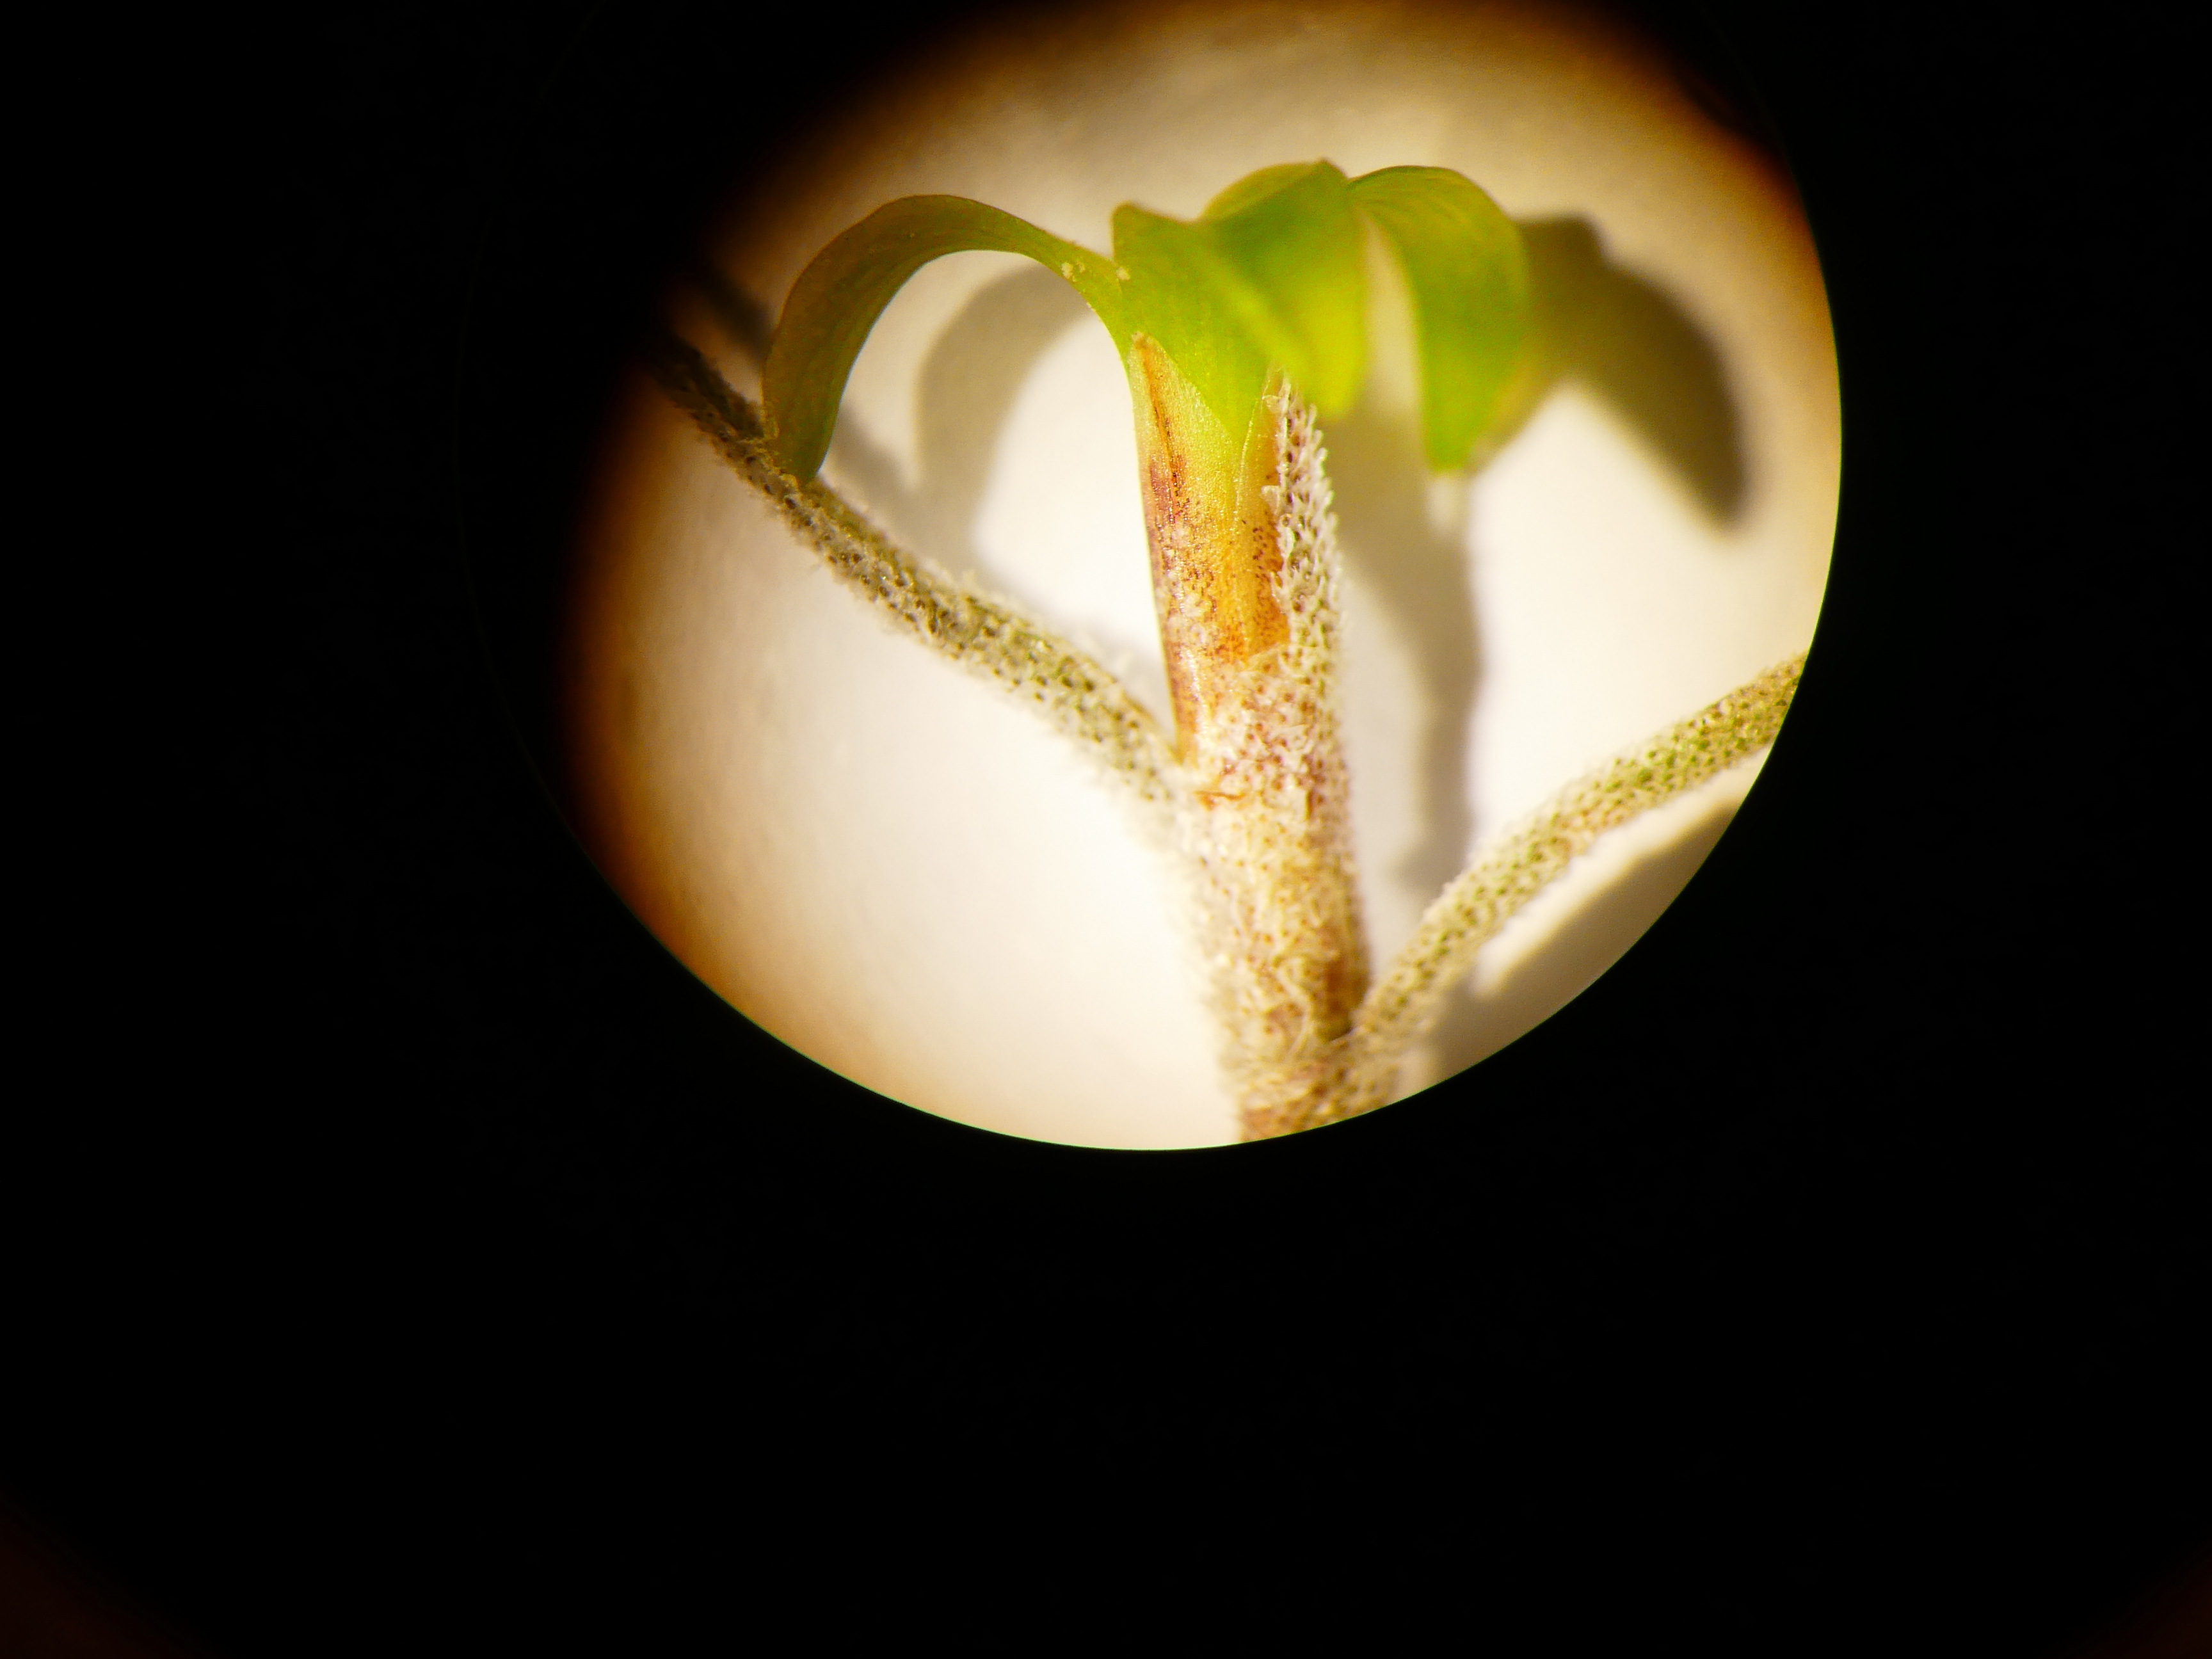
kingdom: Plantae
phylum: Tracheophyta
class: Liliopsida
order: Poales
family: Bromeliaceae
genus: Tillandsia
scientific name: Tillandsia usneoides
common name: Spanish moss
